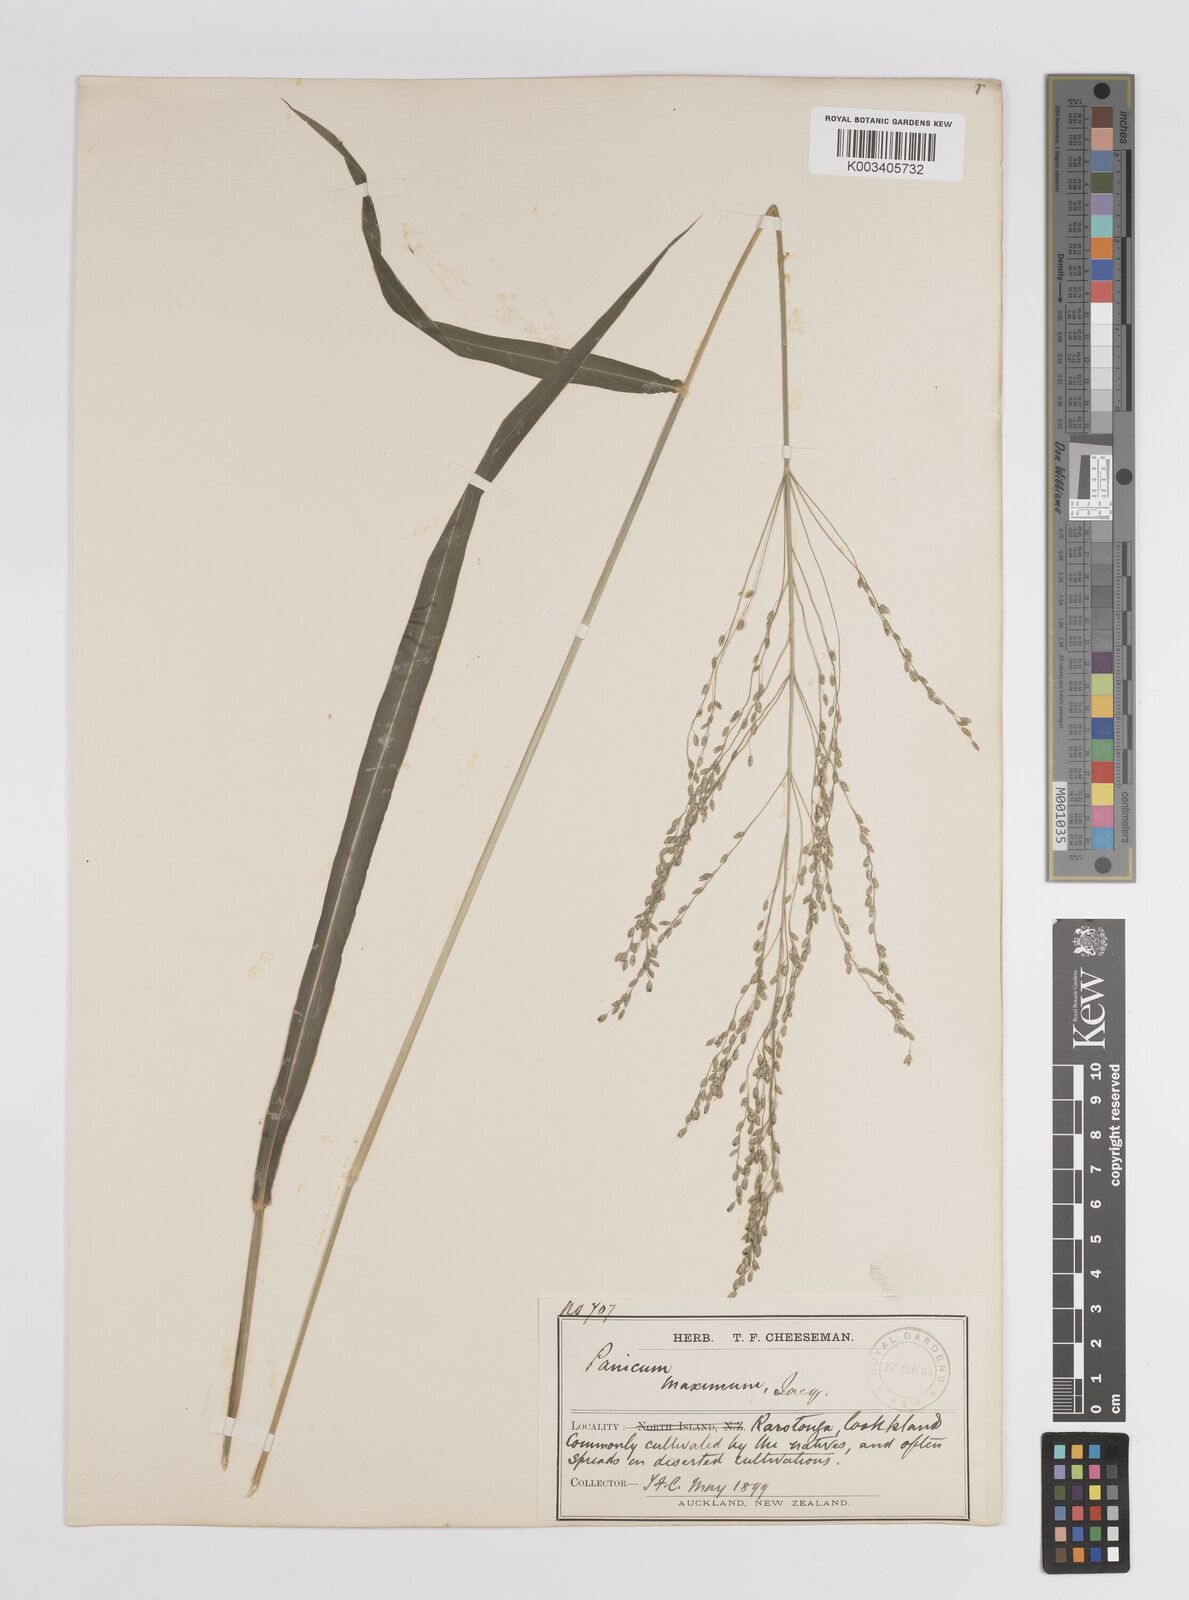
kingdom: Plantae
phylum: Tracheophyta
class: Liliopsida
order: Poales
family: Poaceae
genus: Megathyrsus
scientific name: Megathyrsus maximus
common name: Guineagrass
